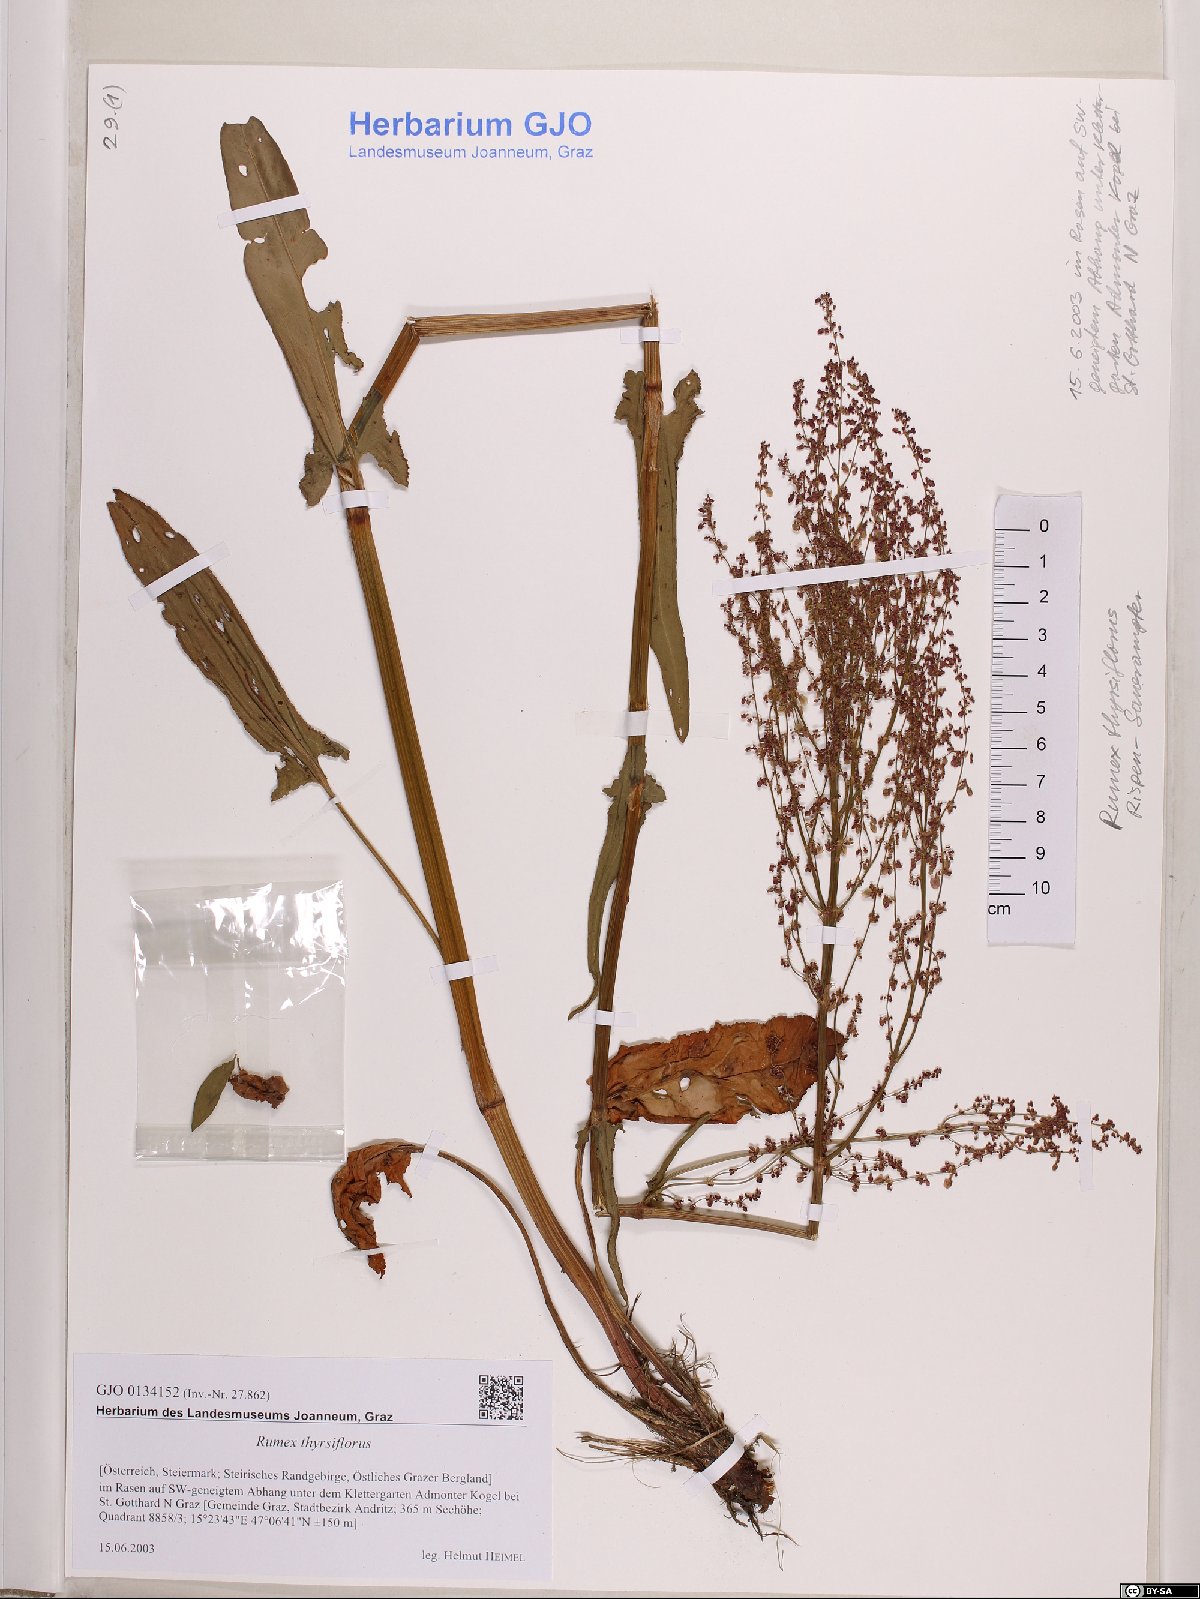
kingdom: Plantae
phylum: Tracheophyta
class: Magnoliopsida
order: Caryophyllales
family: Polygonaceae
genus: Rumex
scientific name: Rumex thyrsiflorus
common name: Garden sorrel
